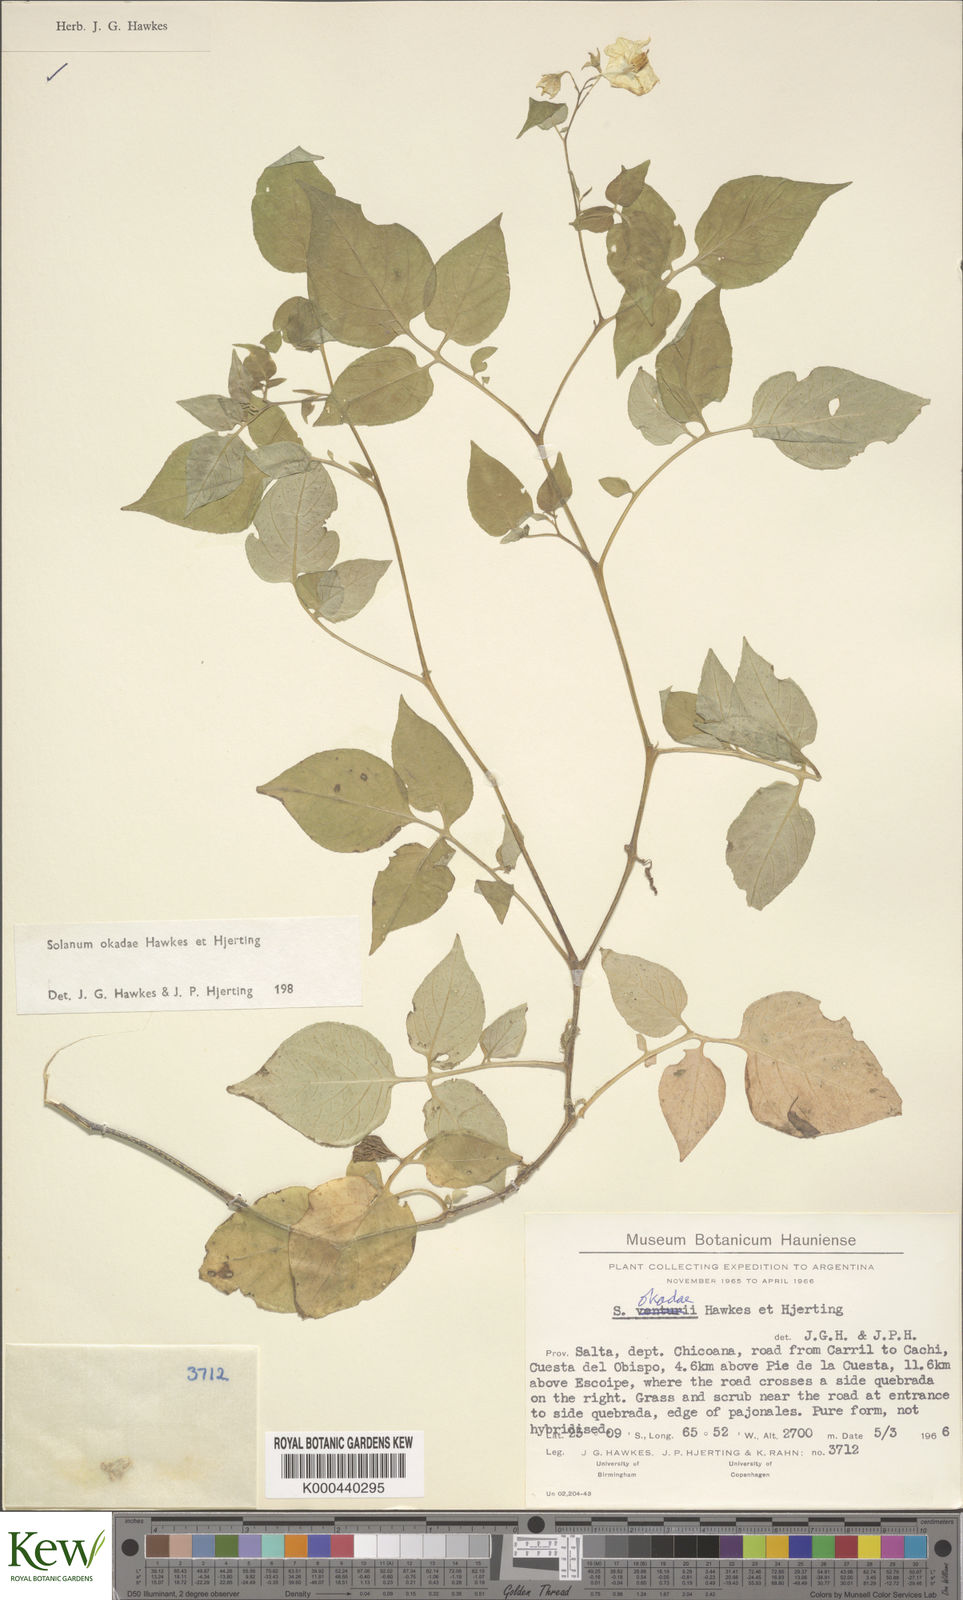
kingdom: Plantae
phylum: Tracheophyta
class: Magnoliopsida
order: Solanales
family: Solanaceae
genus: Solanum
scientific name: Solanum okadae
